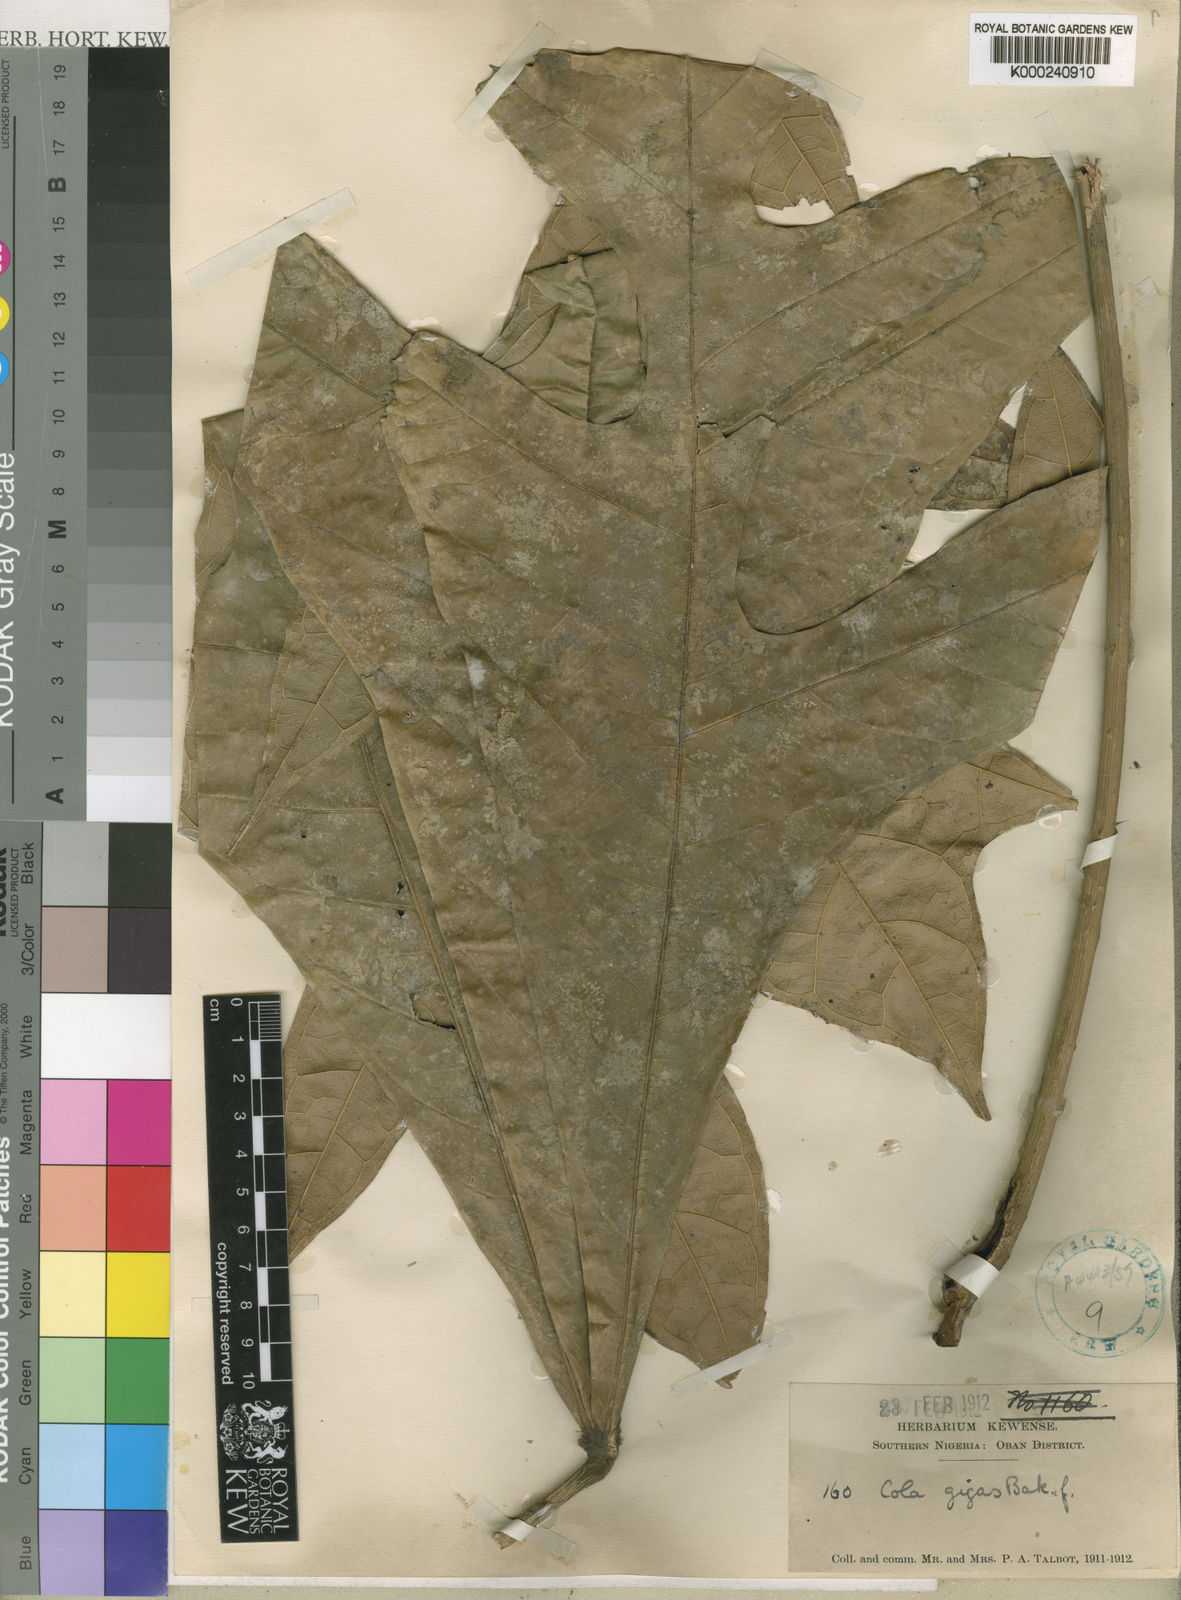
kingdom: Plantae
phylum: Tracheophyta
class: Magnoliopsida
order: Malvales
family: Malvaceae
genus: Cola
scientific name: Cola gigas
